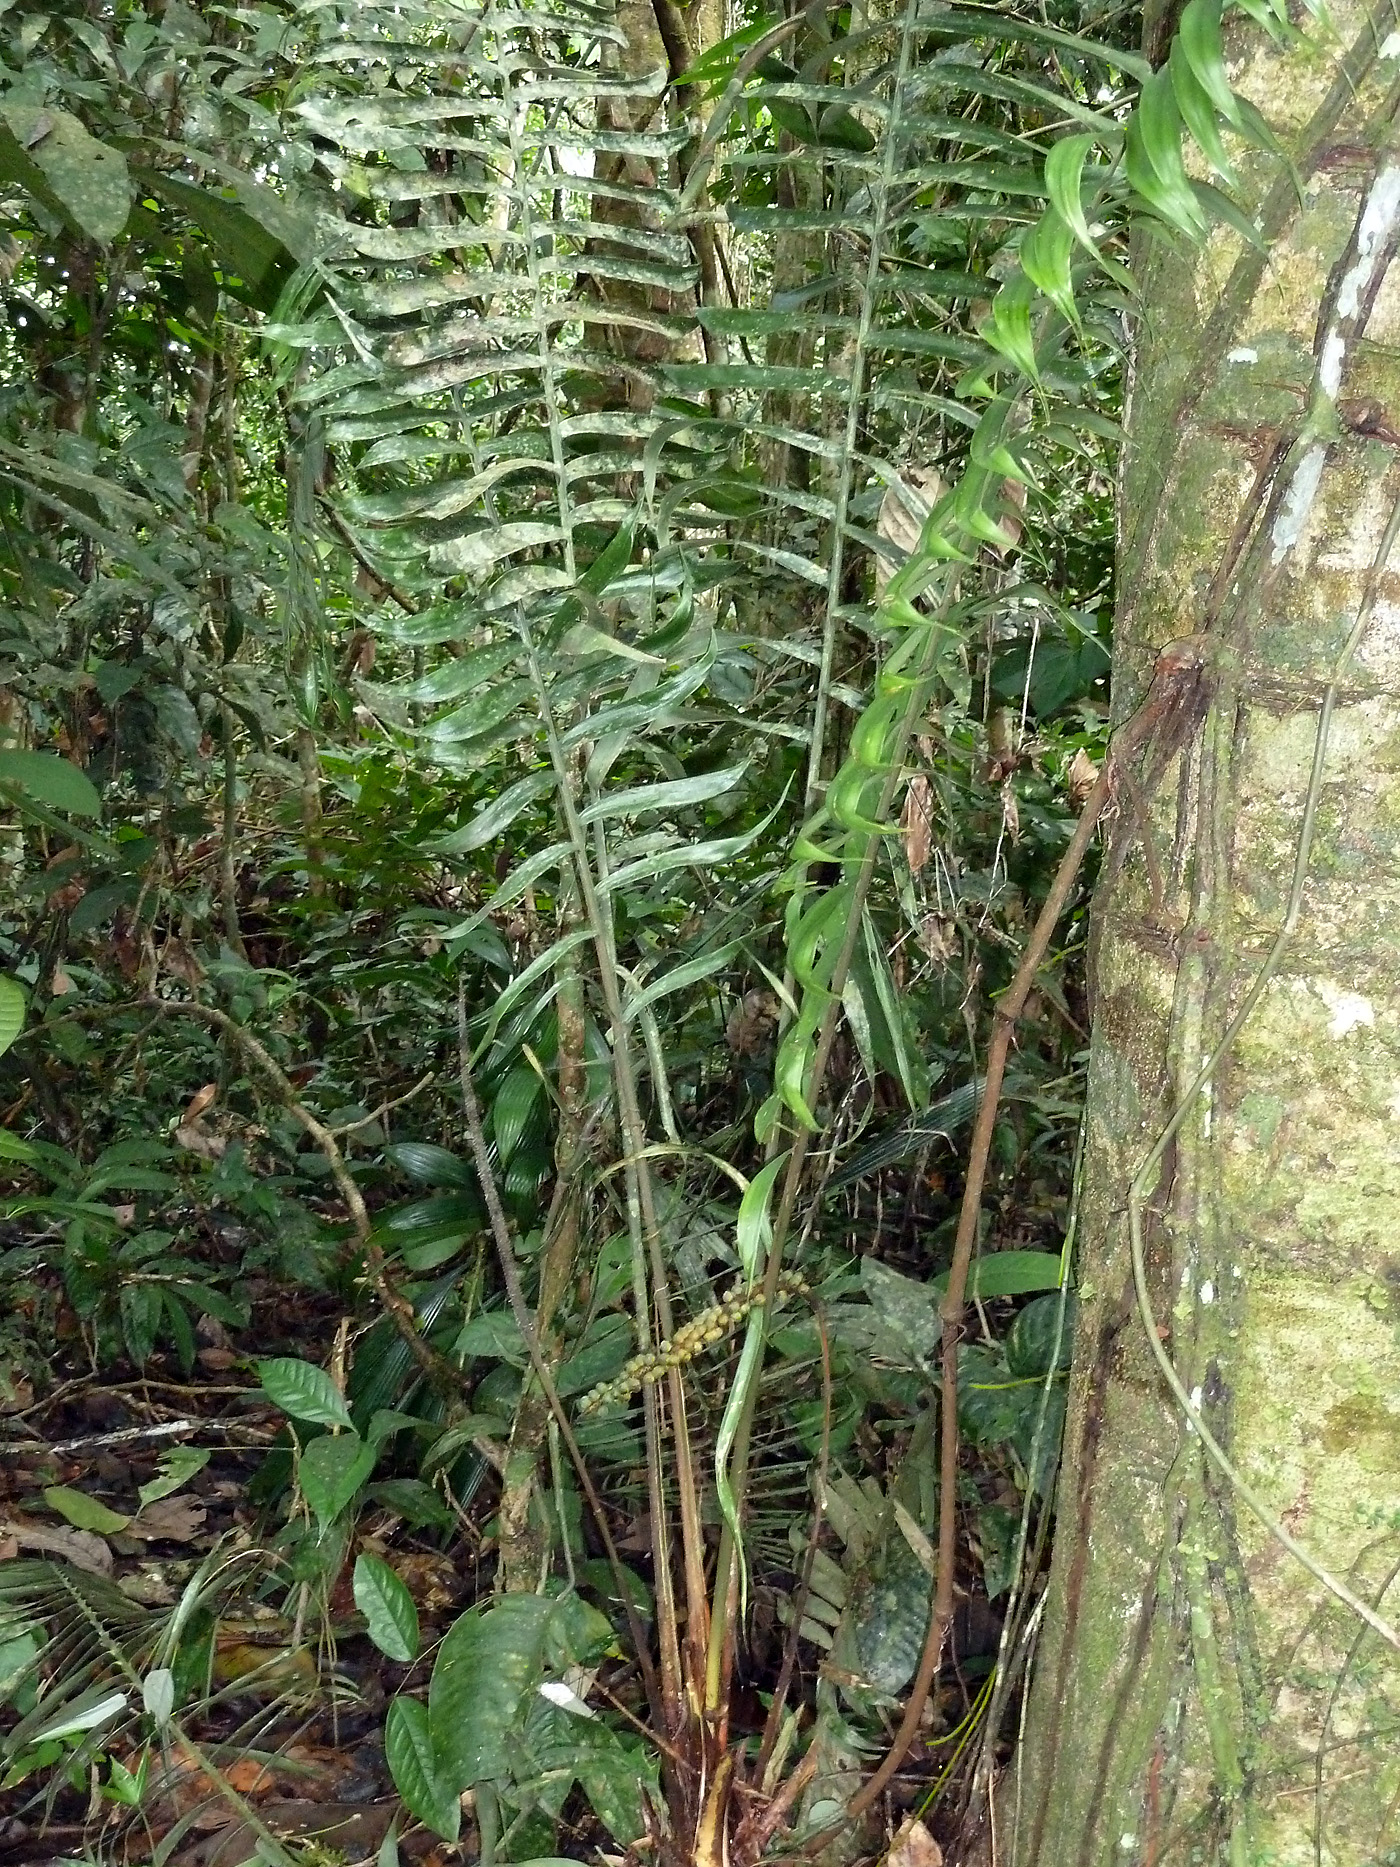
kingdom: Plantae
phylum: Tracheophyta
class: Liliopsida
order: Arecales
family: Arecaceae
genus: Geonoma
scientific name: Geonoma camana
